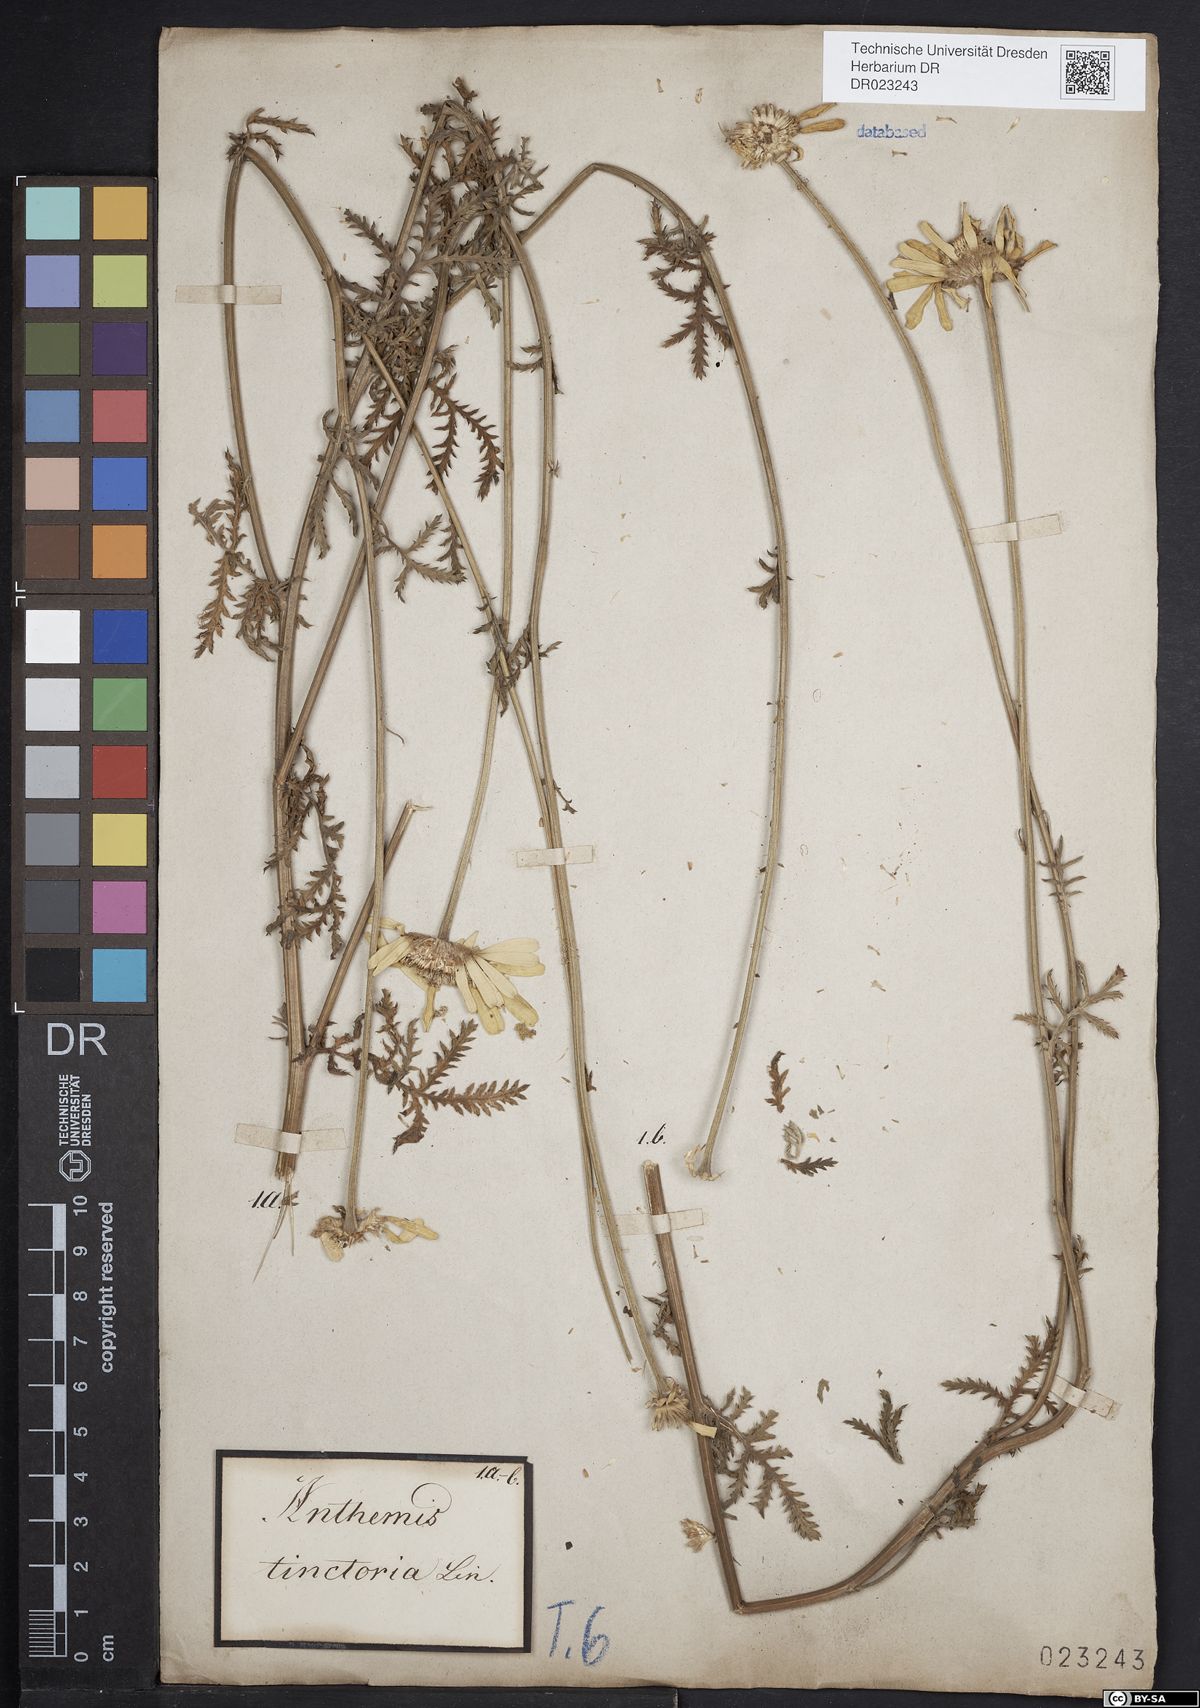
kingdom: Plantae
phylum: Tracheophyta
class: Magnoliopsida
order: Asterales
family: Asteraceae
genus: Cota
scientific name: Cota tinctoria
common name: Golden chamomile
